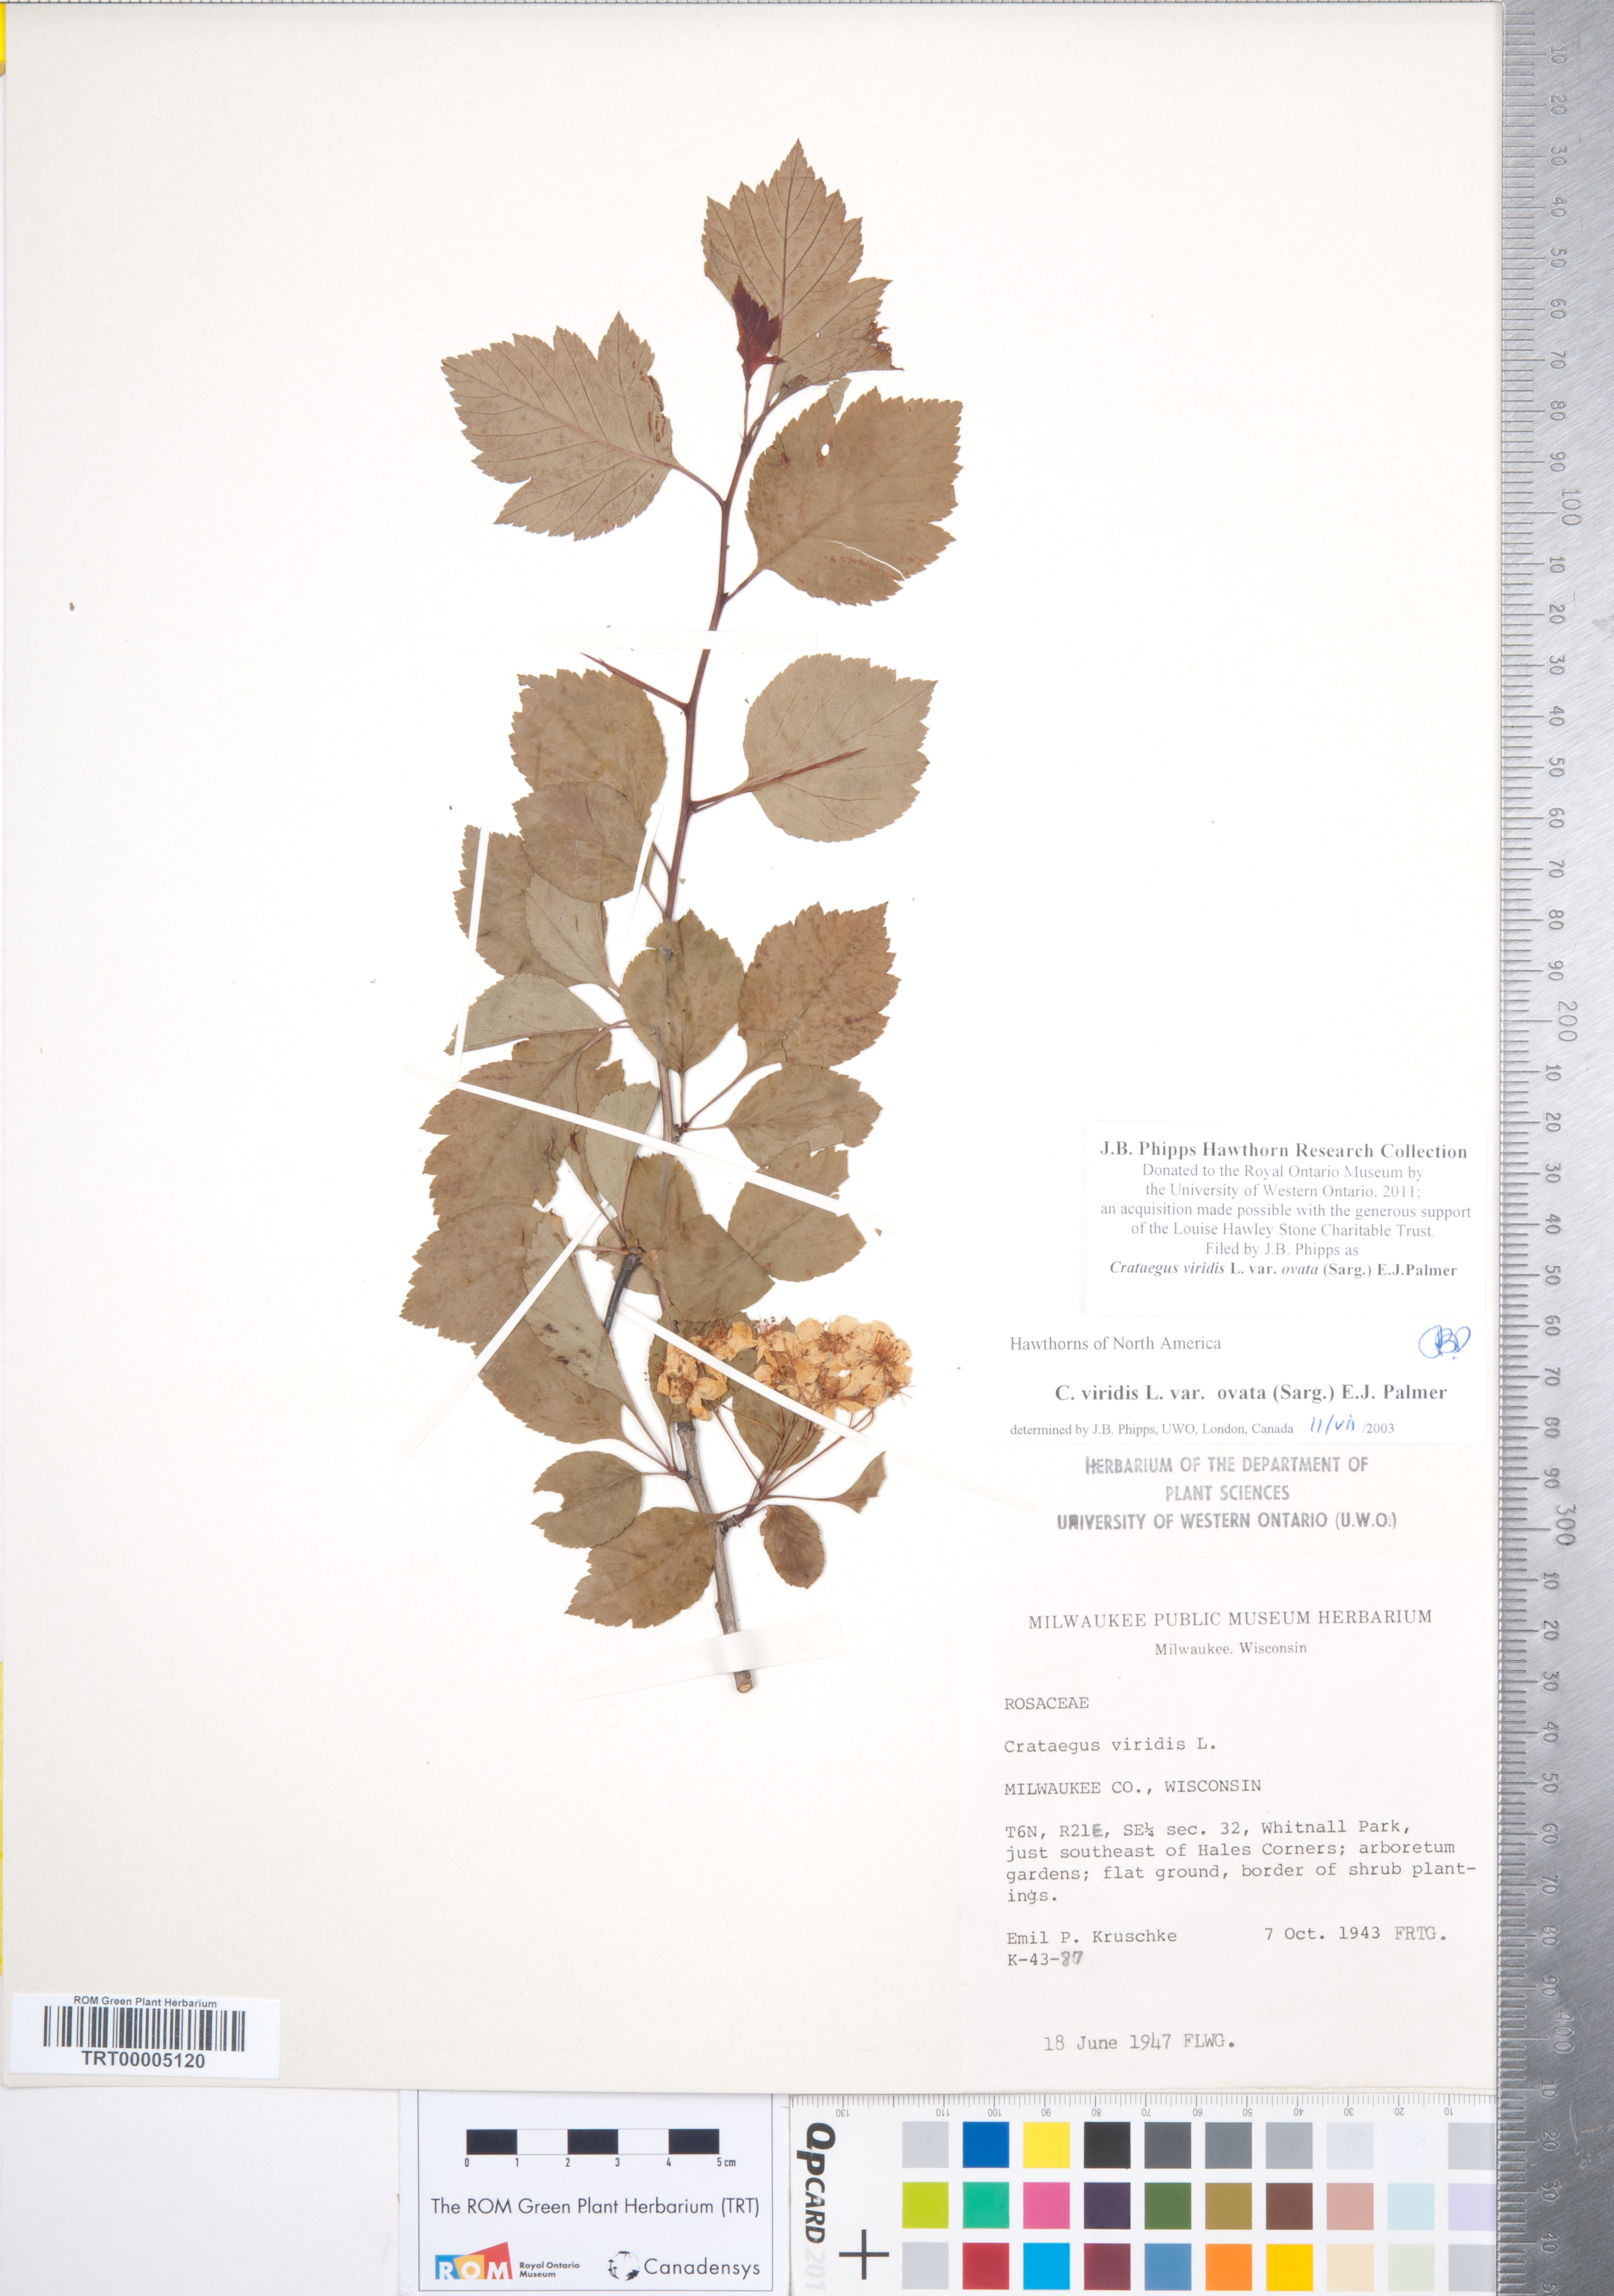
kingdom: Plantae
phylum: Tracheophyta
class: Magnoliopsida
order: Rosales
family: Rosaceae
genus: Crataegus
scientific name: Crataegus viridis
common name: Southernthorn
